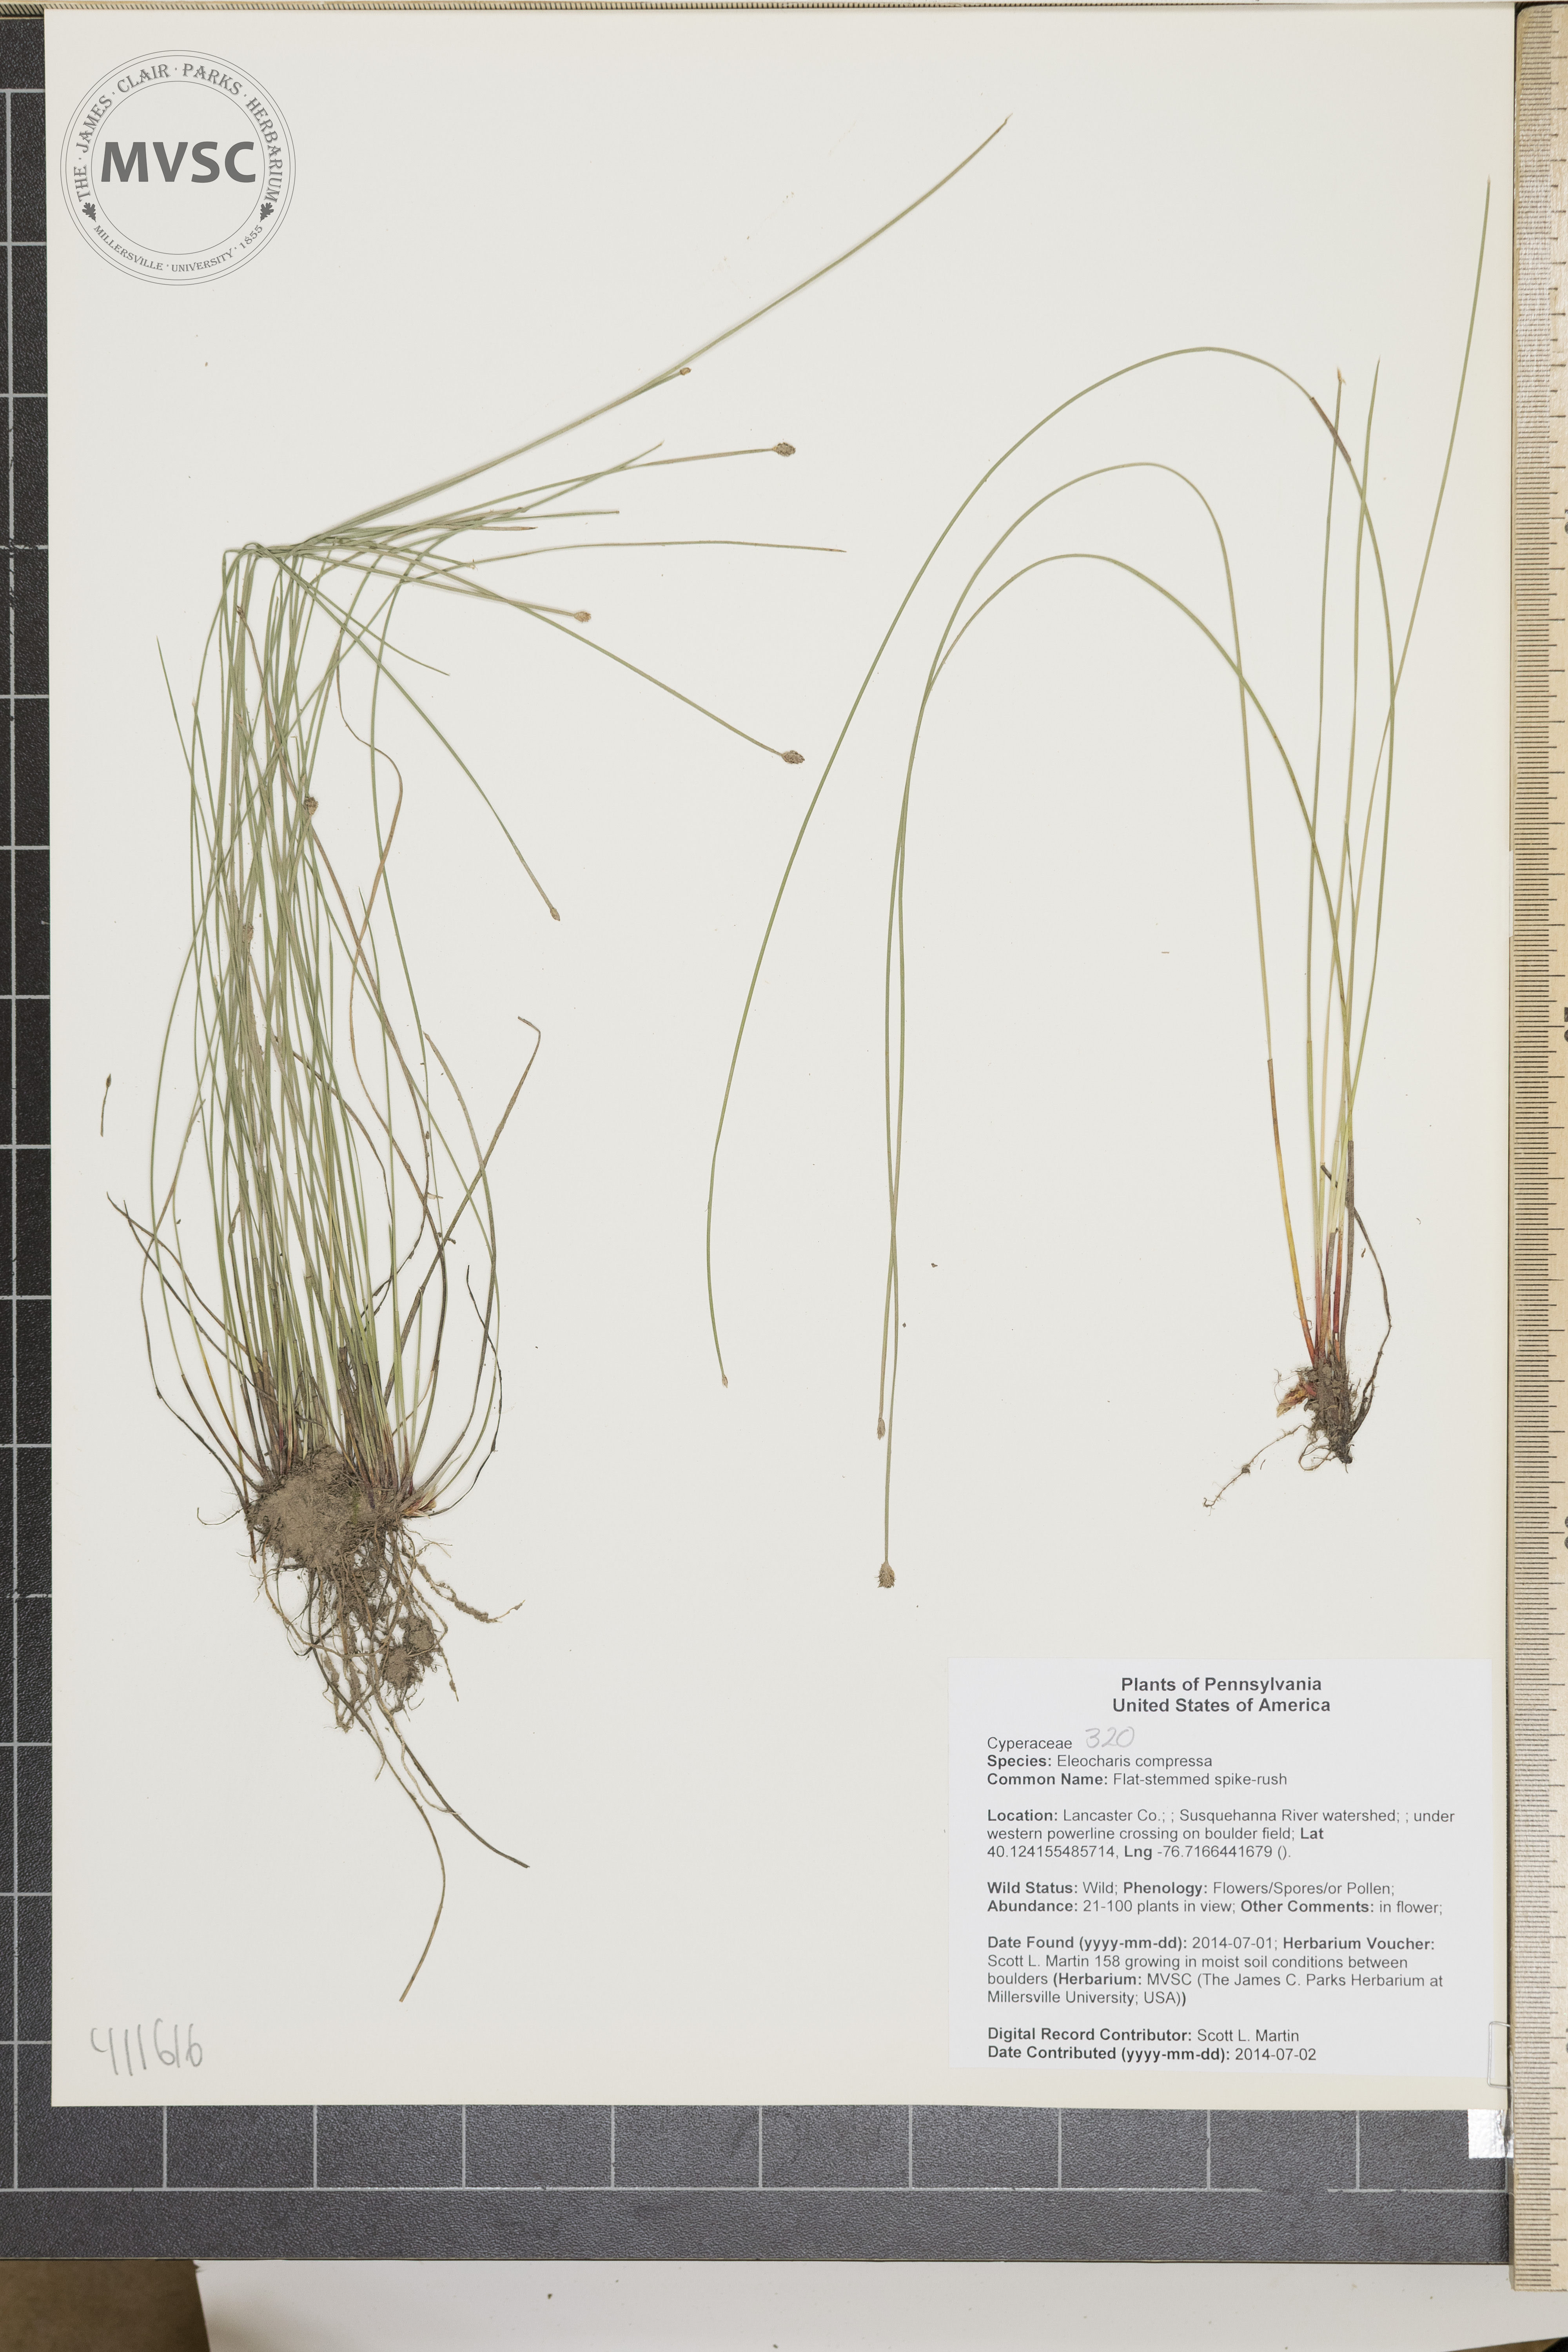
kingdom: Plantae
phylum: Tracheophyta
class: Liliopsida
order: Poales
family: Cyperaceae
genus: Eleocharis
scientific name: Eleocharis compressa
